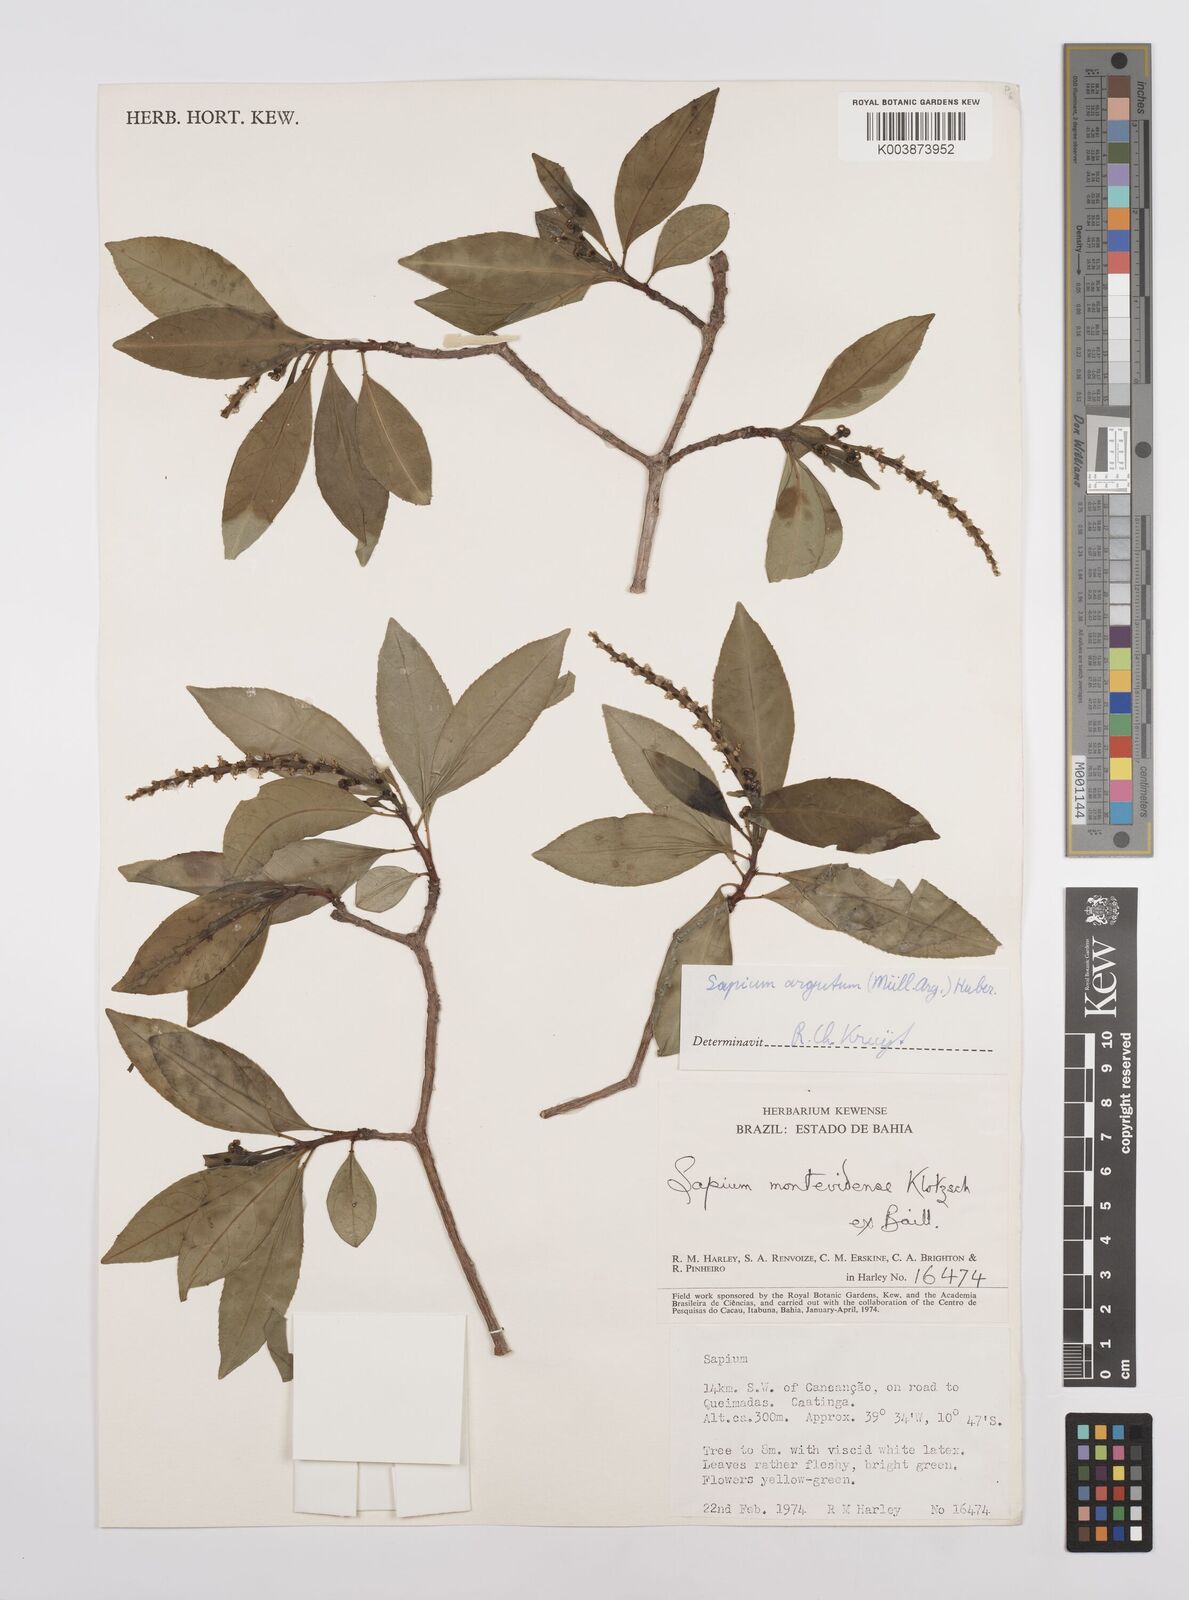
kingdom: Plantae
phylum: Tracheophyta
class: Magnoliopsida
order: Malpighiales
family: Euphorbiaceae
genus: Sapium
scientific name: Sapium glandulosum
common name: Milktree
